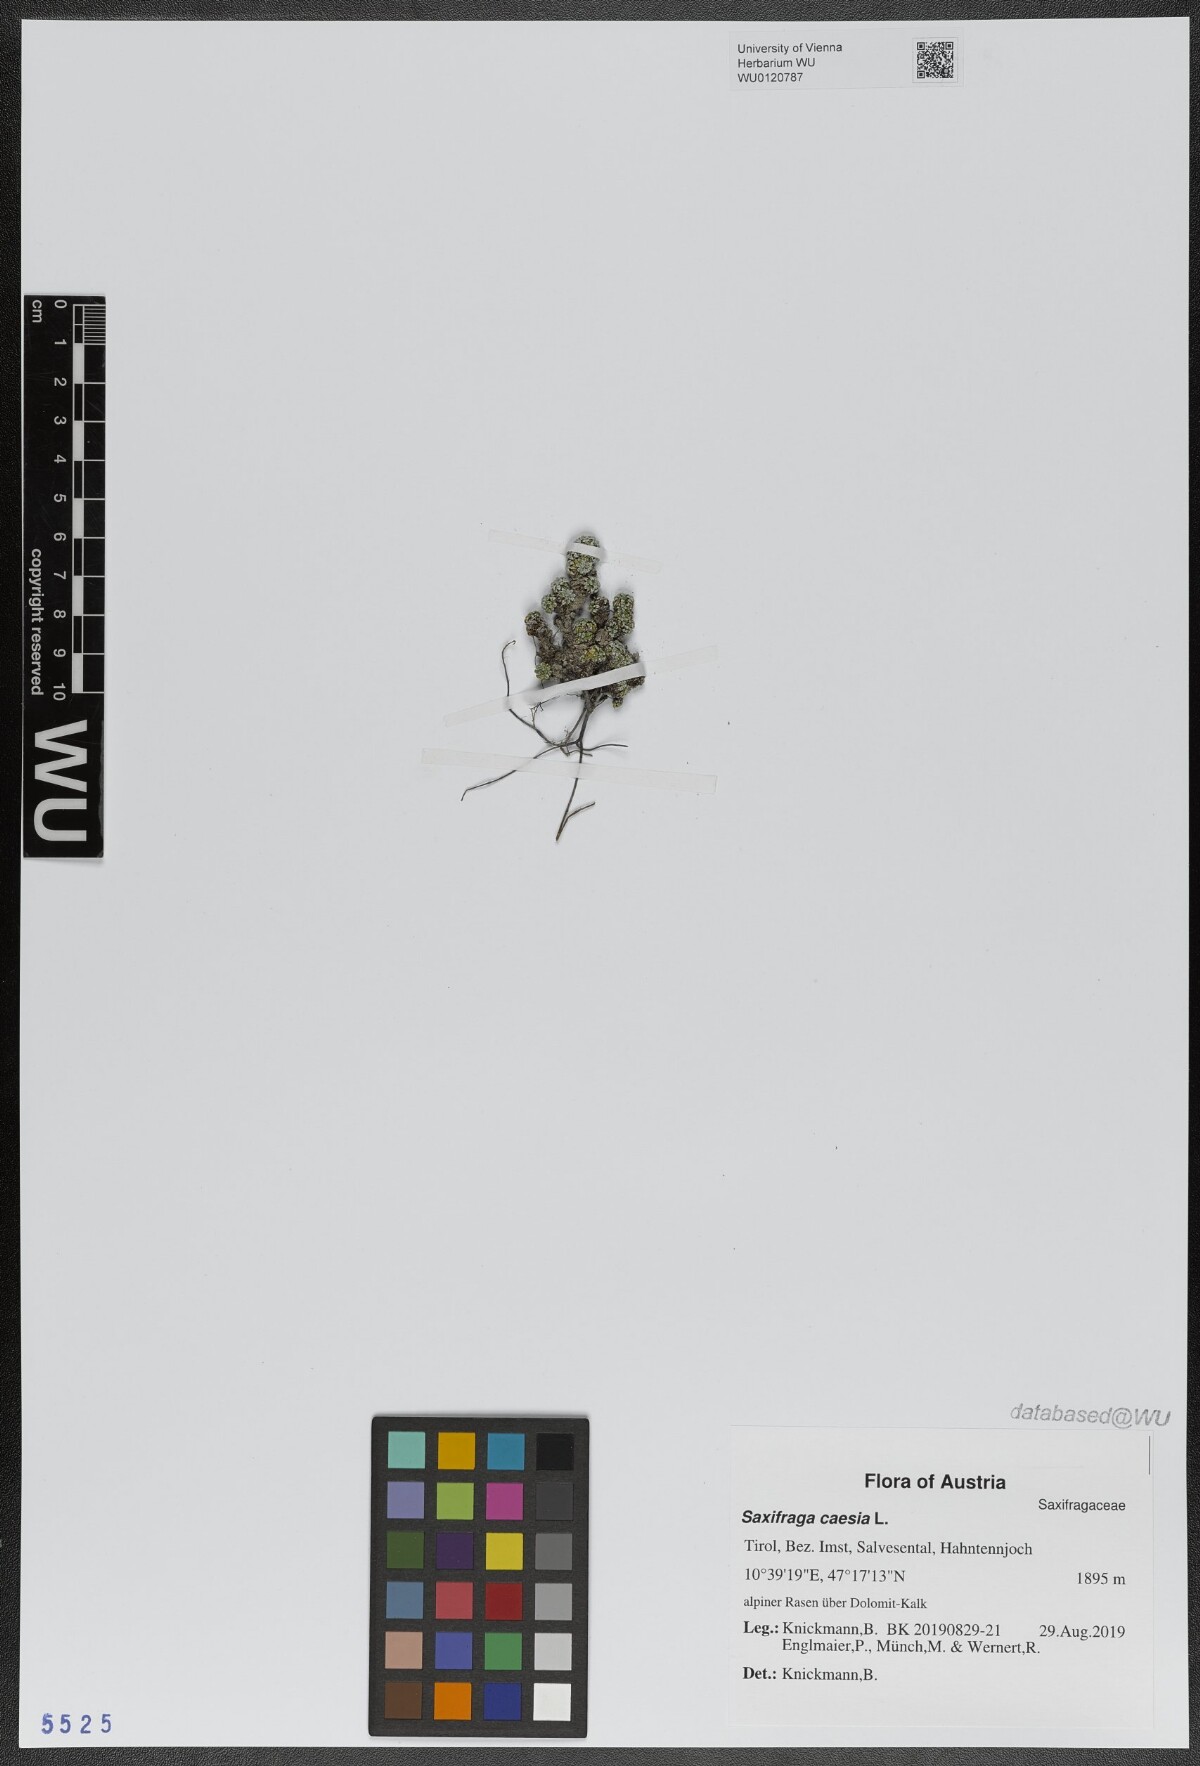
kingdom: Plantae
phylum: Tracheophyta
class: Magnoliopsida
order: Saxifragales
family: Saxifragaceae
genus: Saxifraga
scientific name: Saxifraga caesia
